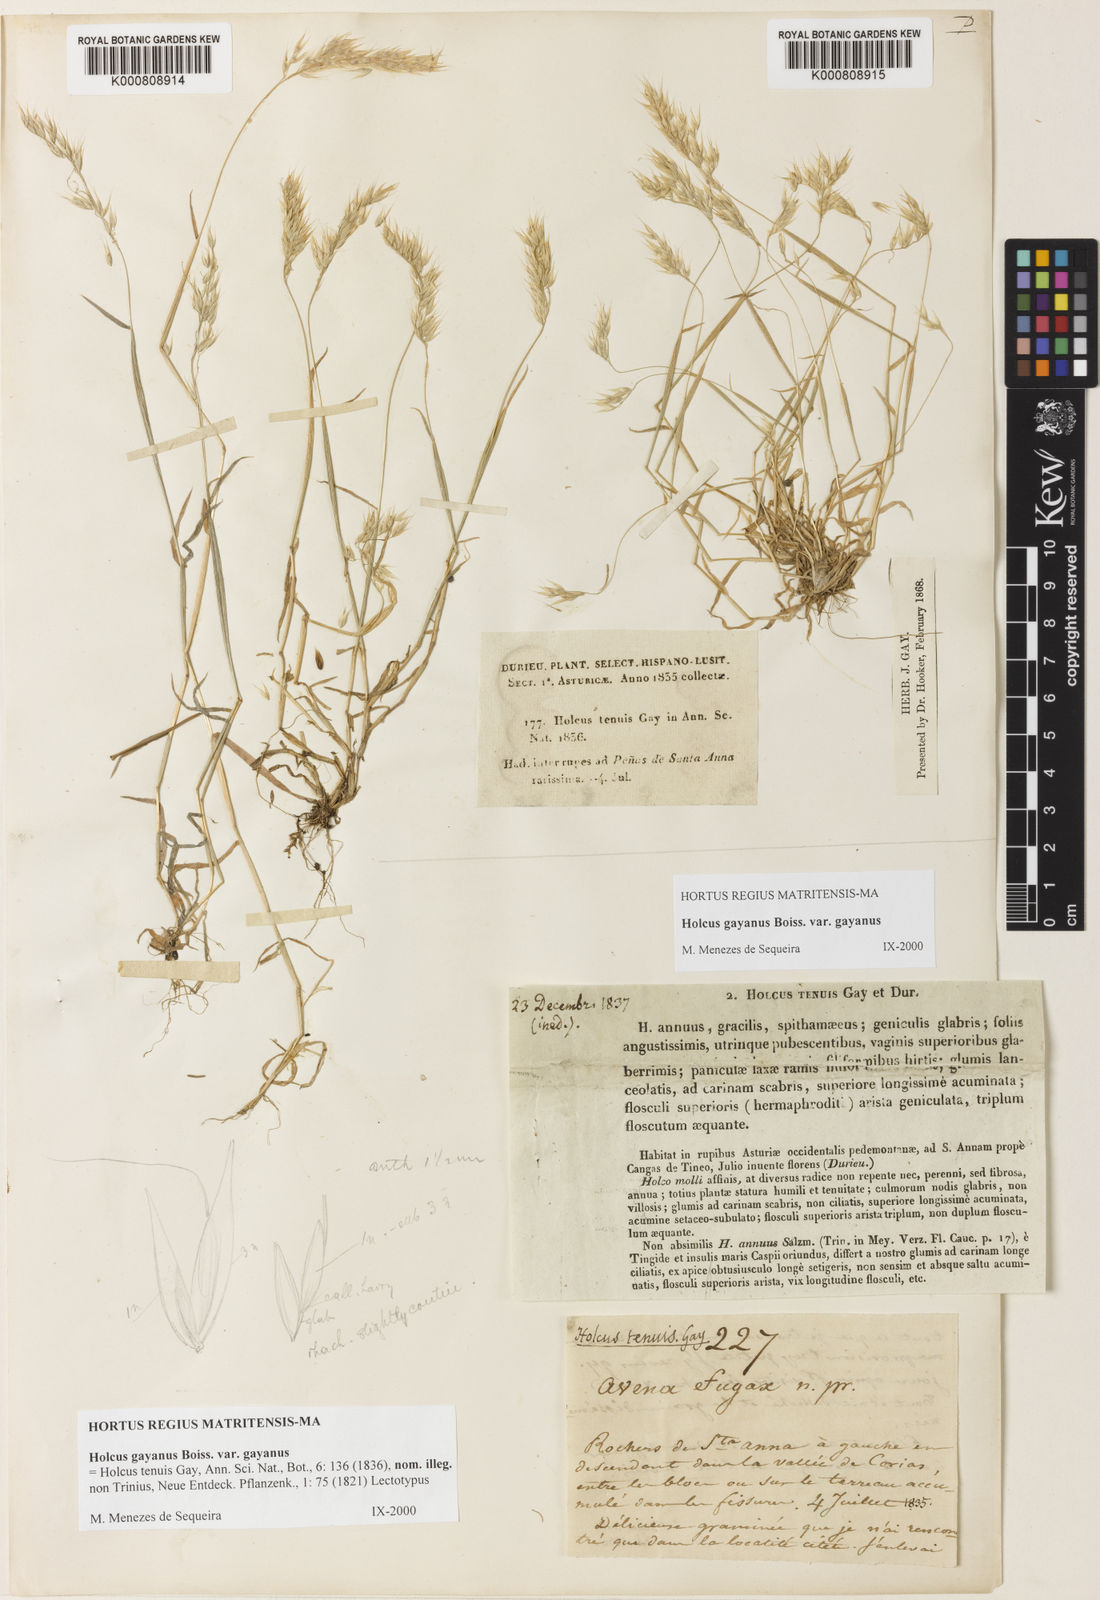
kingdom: Plantae
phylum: Tracheophyta
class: Liliopsida
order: Poales
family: Poaceae
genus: Holcus
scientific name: Holcus mollis
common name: Creeping velvetgrass
